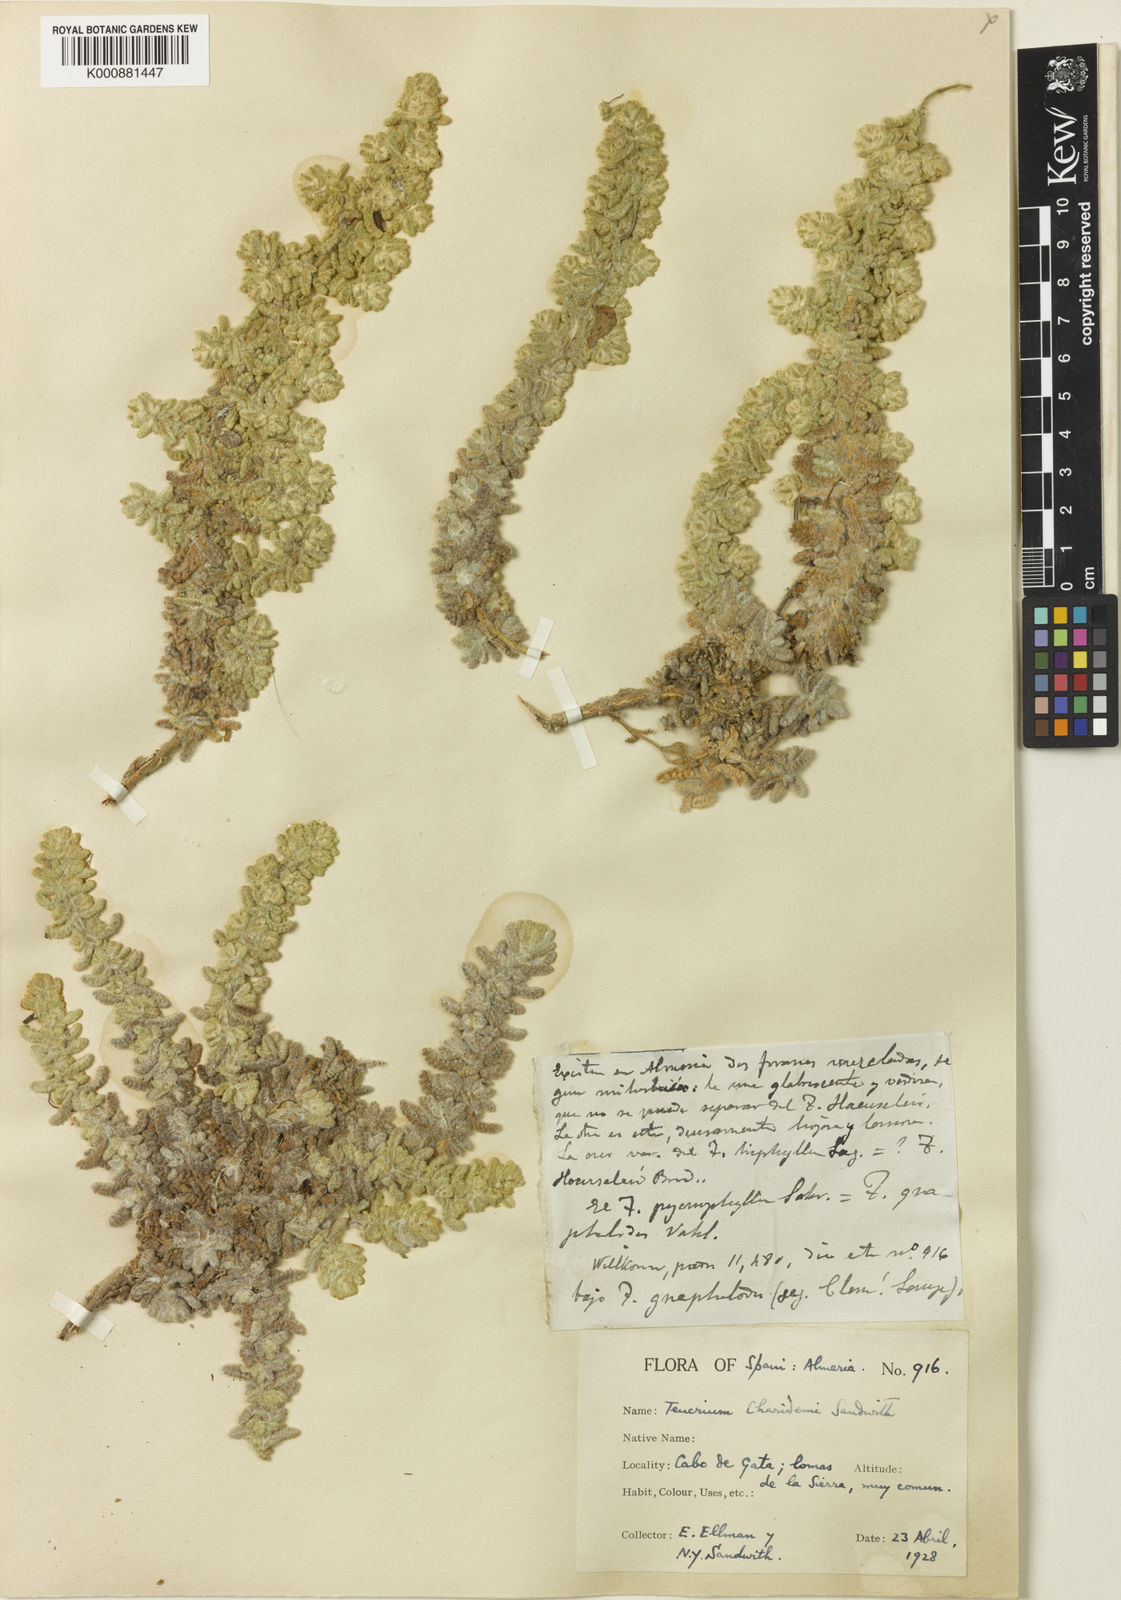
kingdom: Plantae
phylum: Tracheophyta
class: Magnoliopsida
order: Lamiales
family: Lamiaceae
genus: Teucrium
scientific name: Teucrium charidemi
